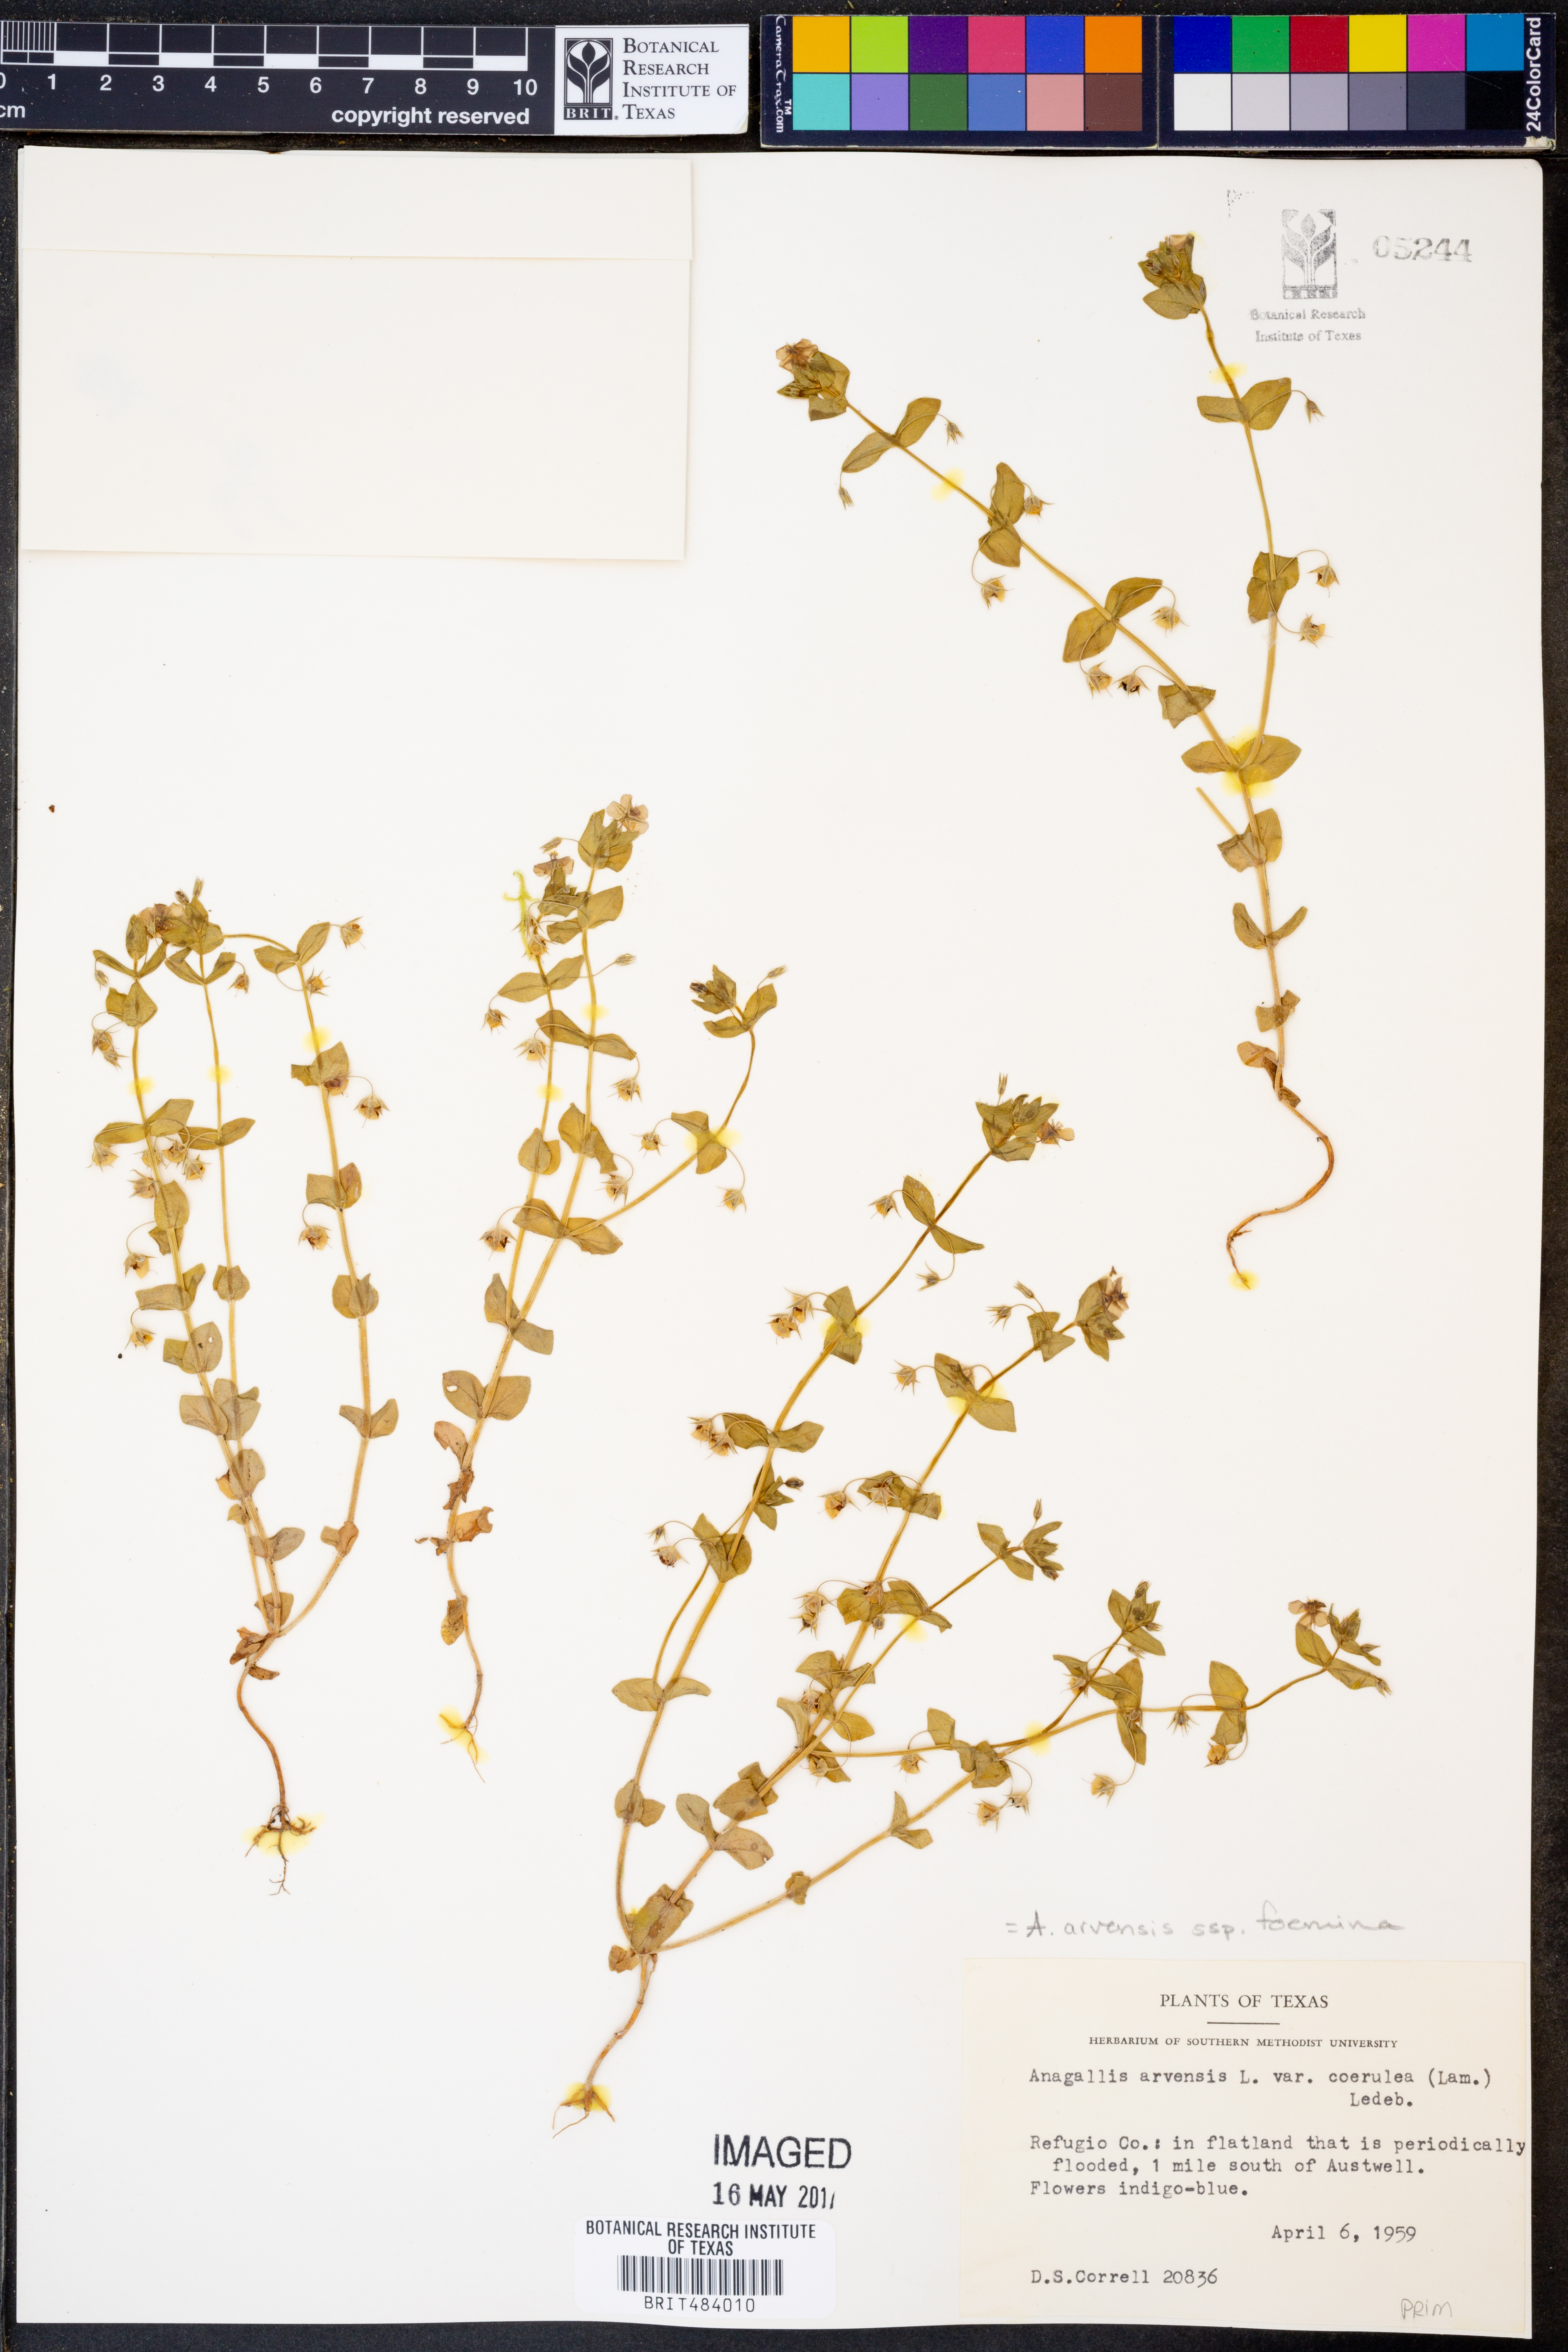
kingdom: Plantae
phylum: Tracheophyta
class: Magnoliopsida
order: Ericales
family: Primulaceae
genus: Lysimachia
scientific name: Lysimachia arvensis
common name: Scarlet pimpernel
